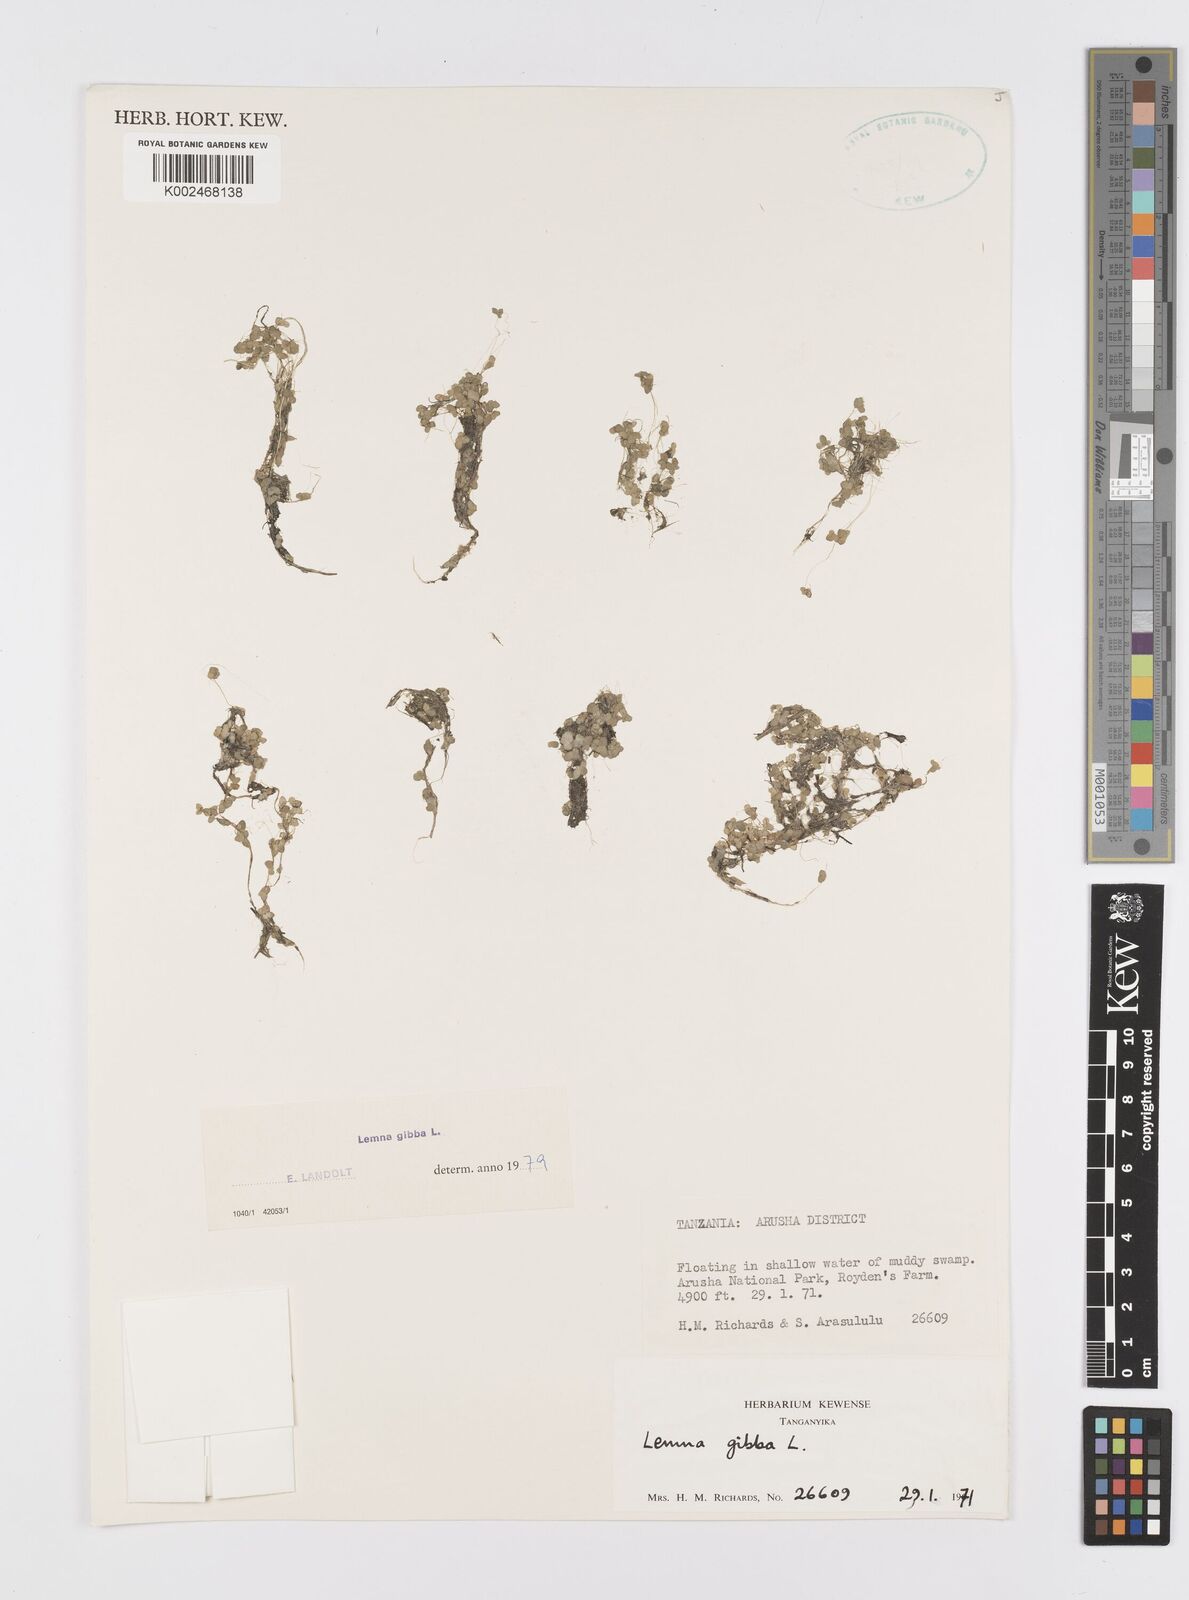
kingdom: Plantae
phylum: Tracheophyta
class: Liliopsida
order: Alismatales
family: Araceae
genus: Lemna
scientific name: Lemna gibba
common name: Fat duckweed
